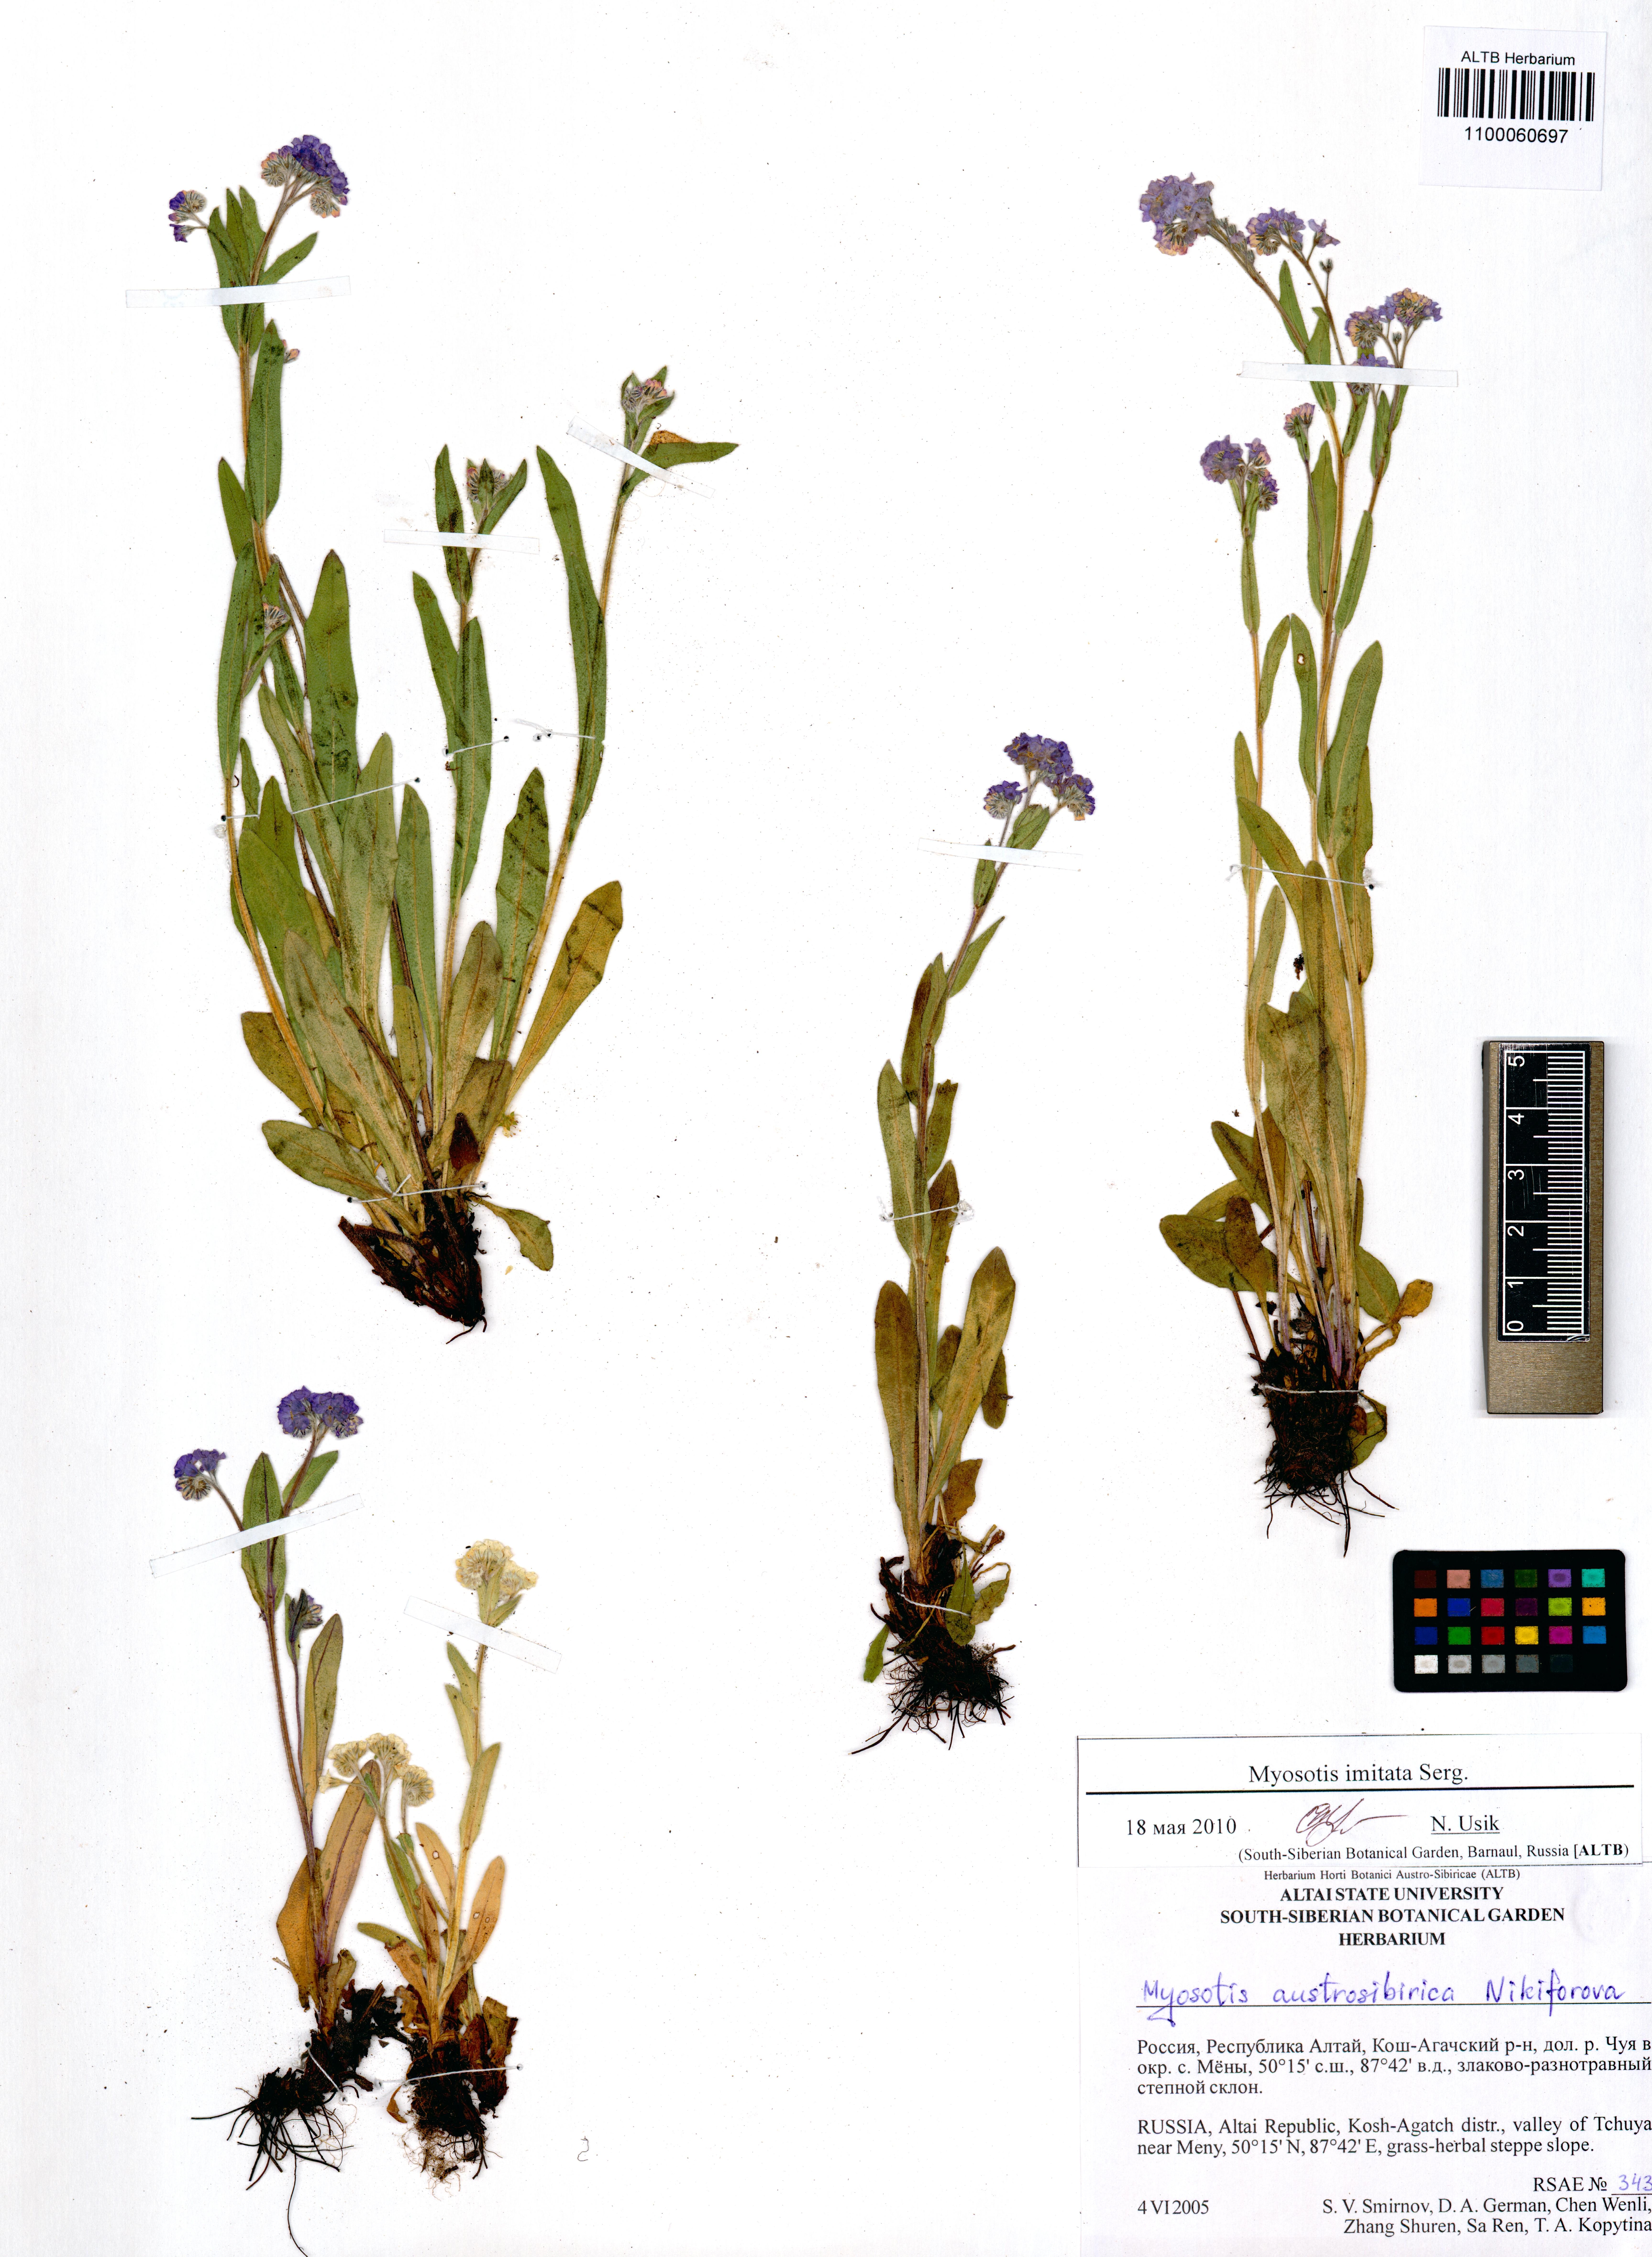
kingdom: Plantae
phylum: Tracheophyta
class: Magnoliopsida
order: Boraginales
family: Boraginaceae
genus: Myosotis
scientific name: Myosotis imitata
